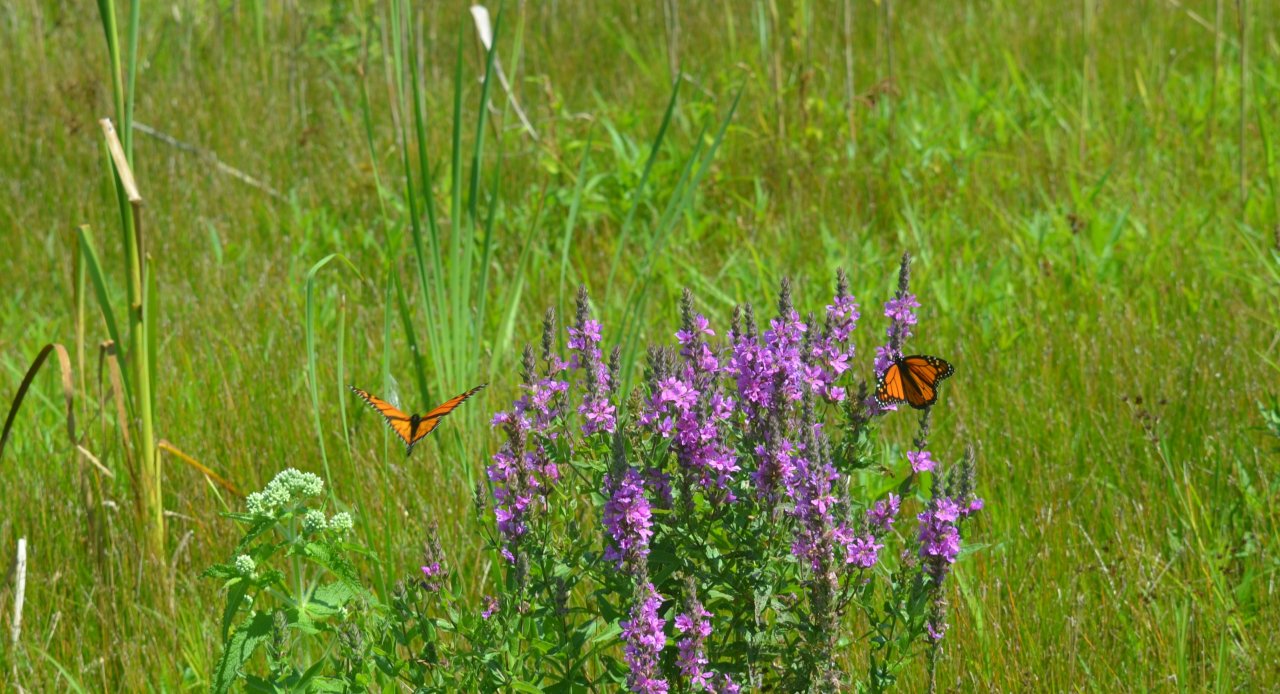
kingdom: Animalia
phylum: Arthropoda
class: Insecta
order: Lepidoptera
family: Nymphalidae
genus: Danaus
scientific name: Danaus plexippus
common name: Monarch
